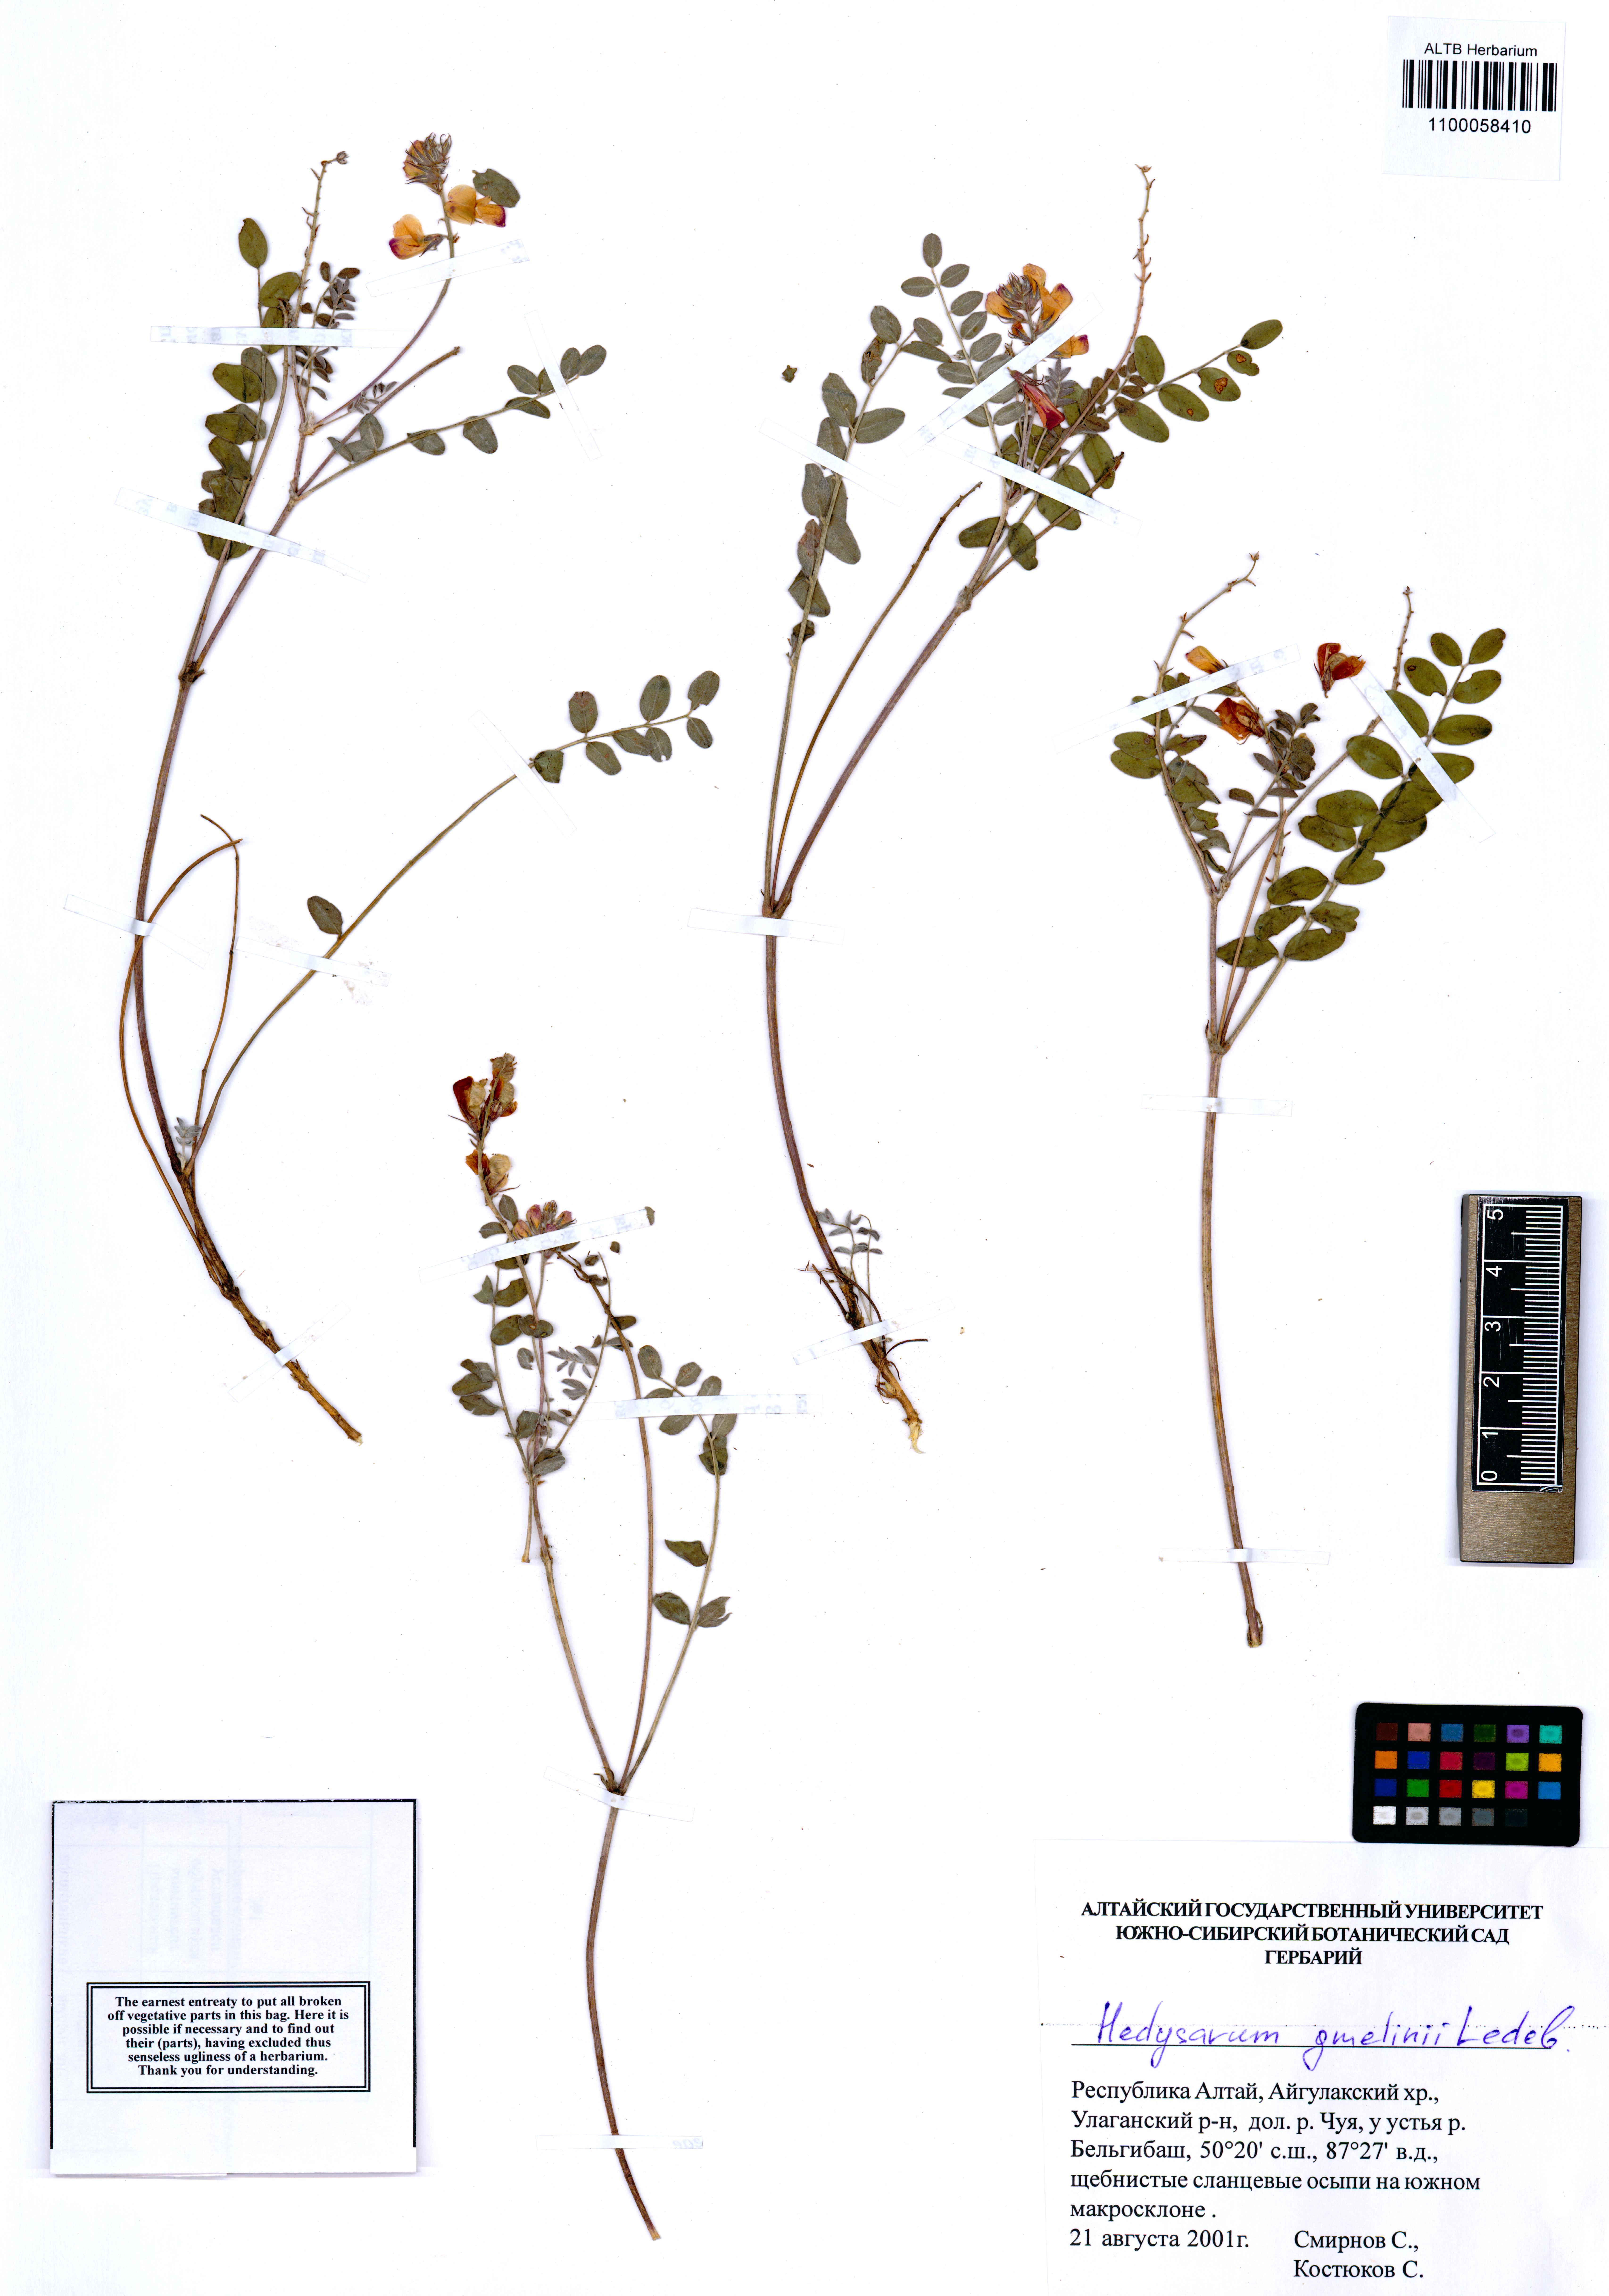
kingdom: Plantae
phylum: Tracheophyta
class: Magnoliopsida
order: Fabales
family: Fabaceae
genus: Hedysarum
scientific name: Hedysarum gmelinii
